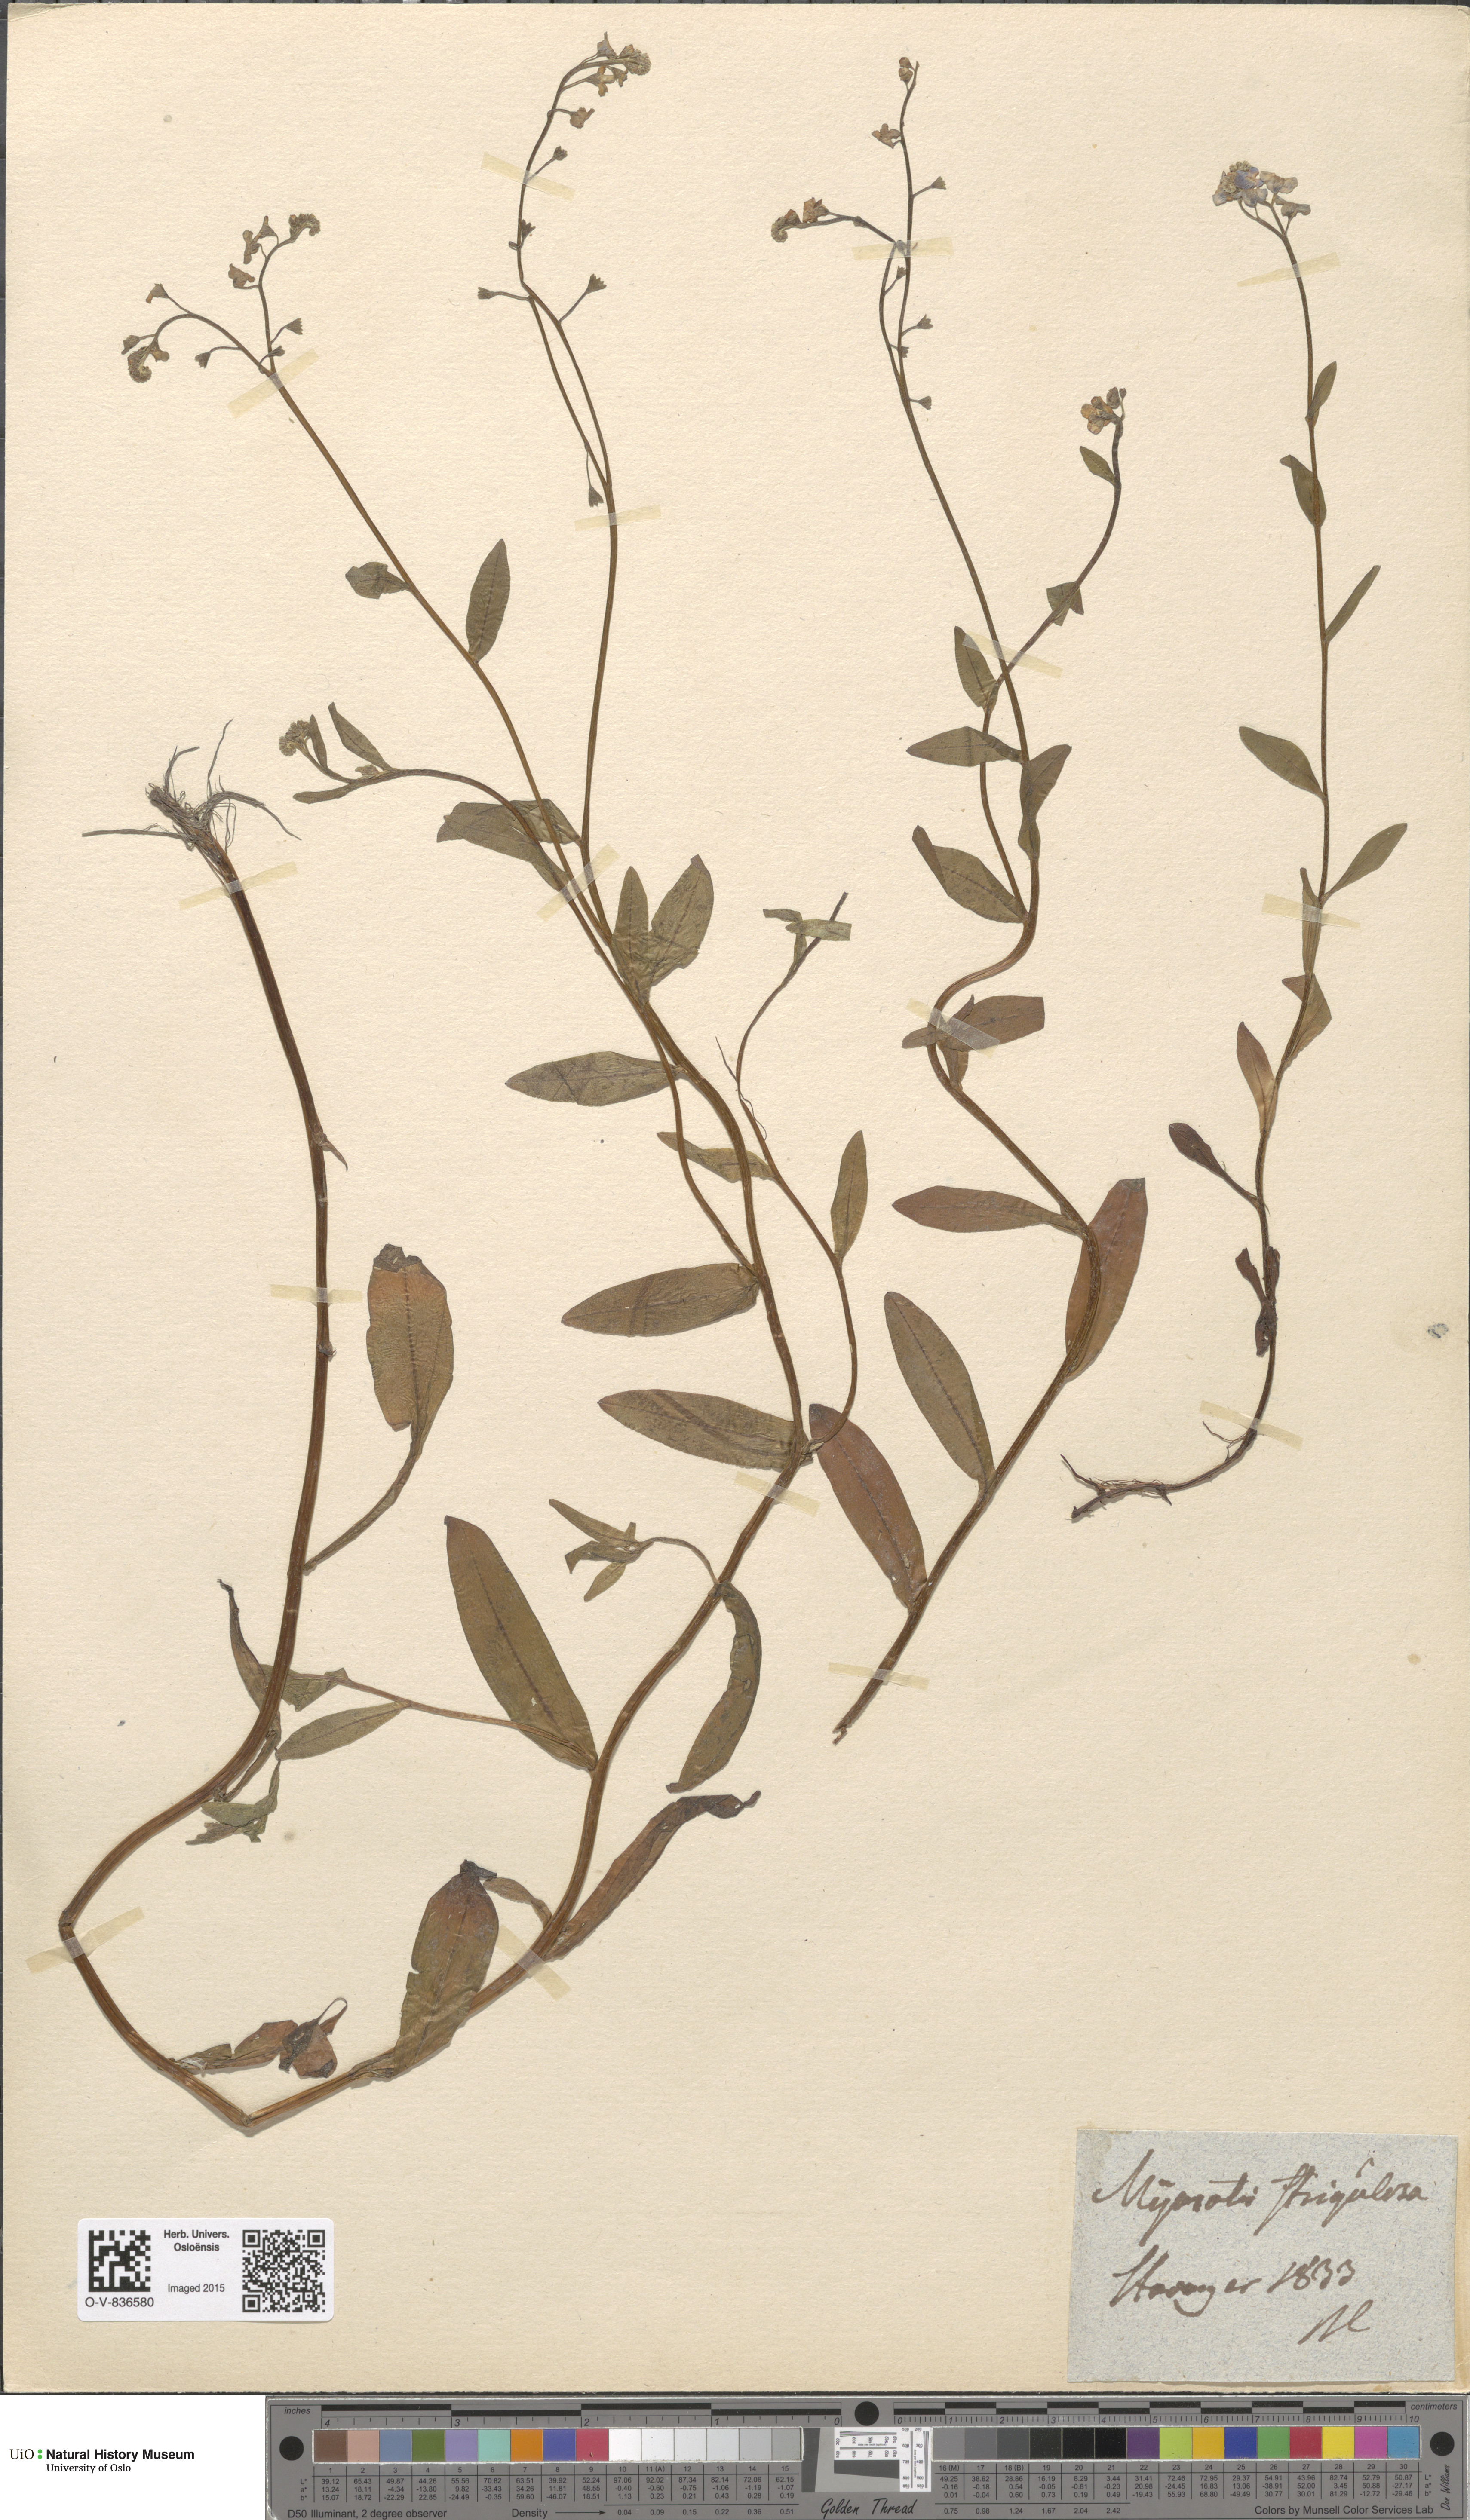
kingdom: Plantae
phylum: Tracheophyta
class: Magnoliopsida
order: Boraginales
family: Boraginaceae
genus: Myosotis
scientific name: Myosotis nemorosa
